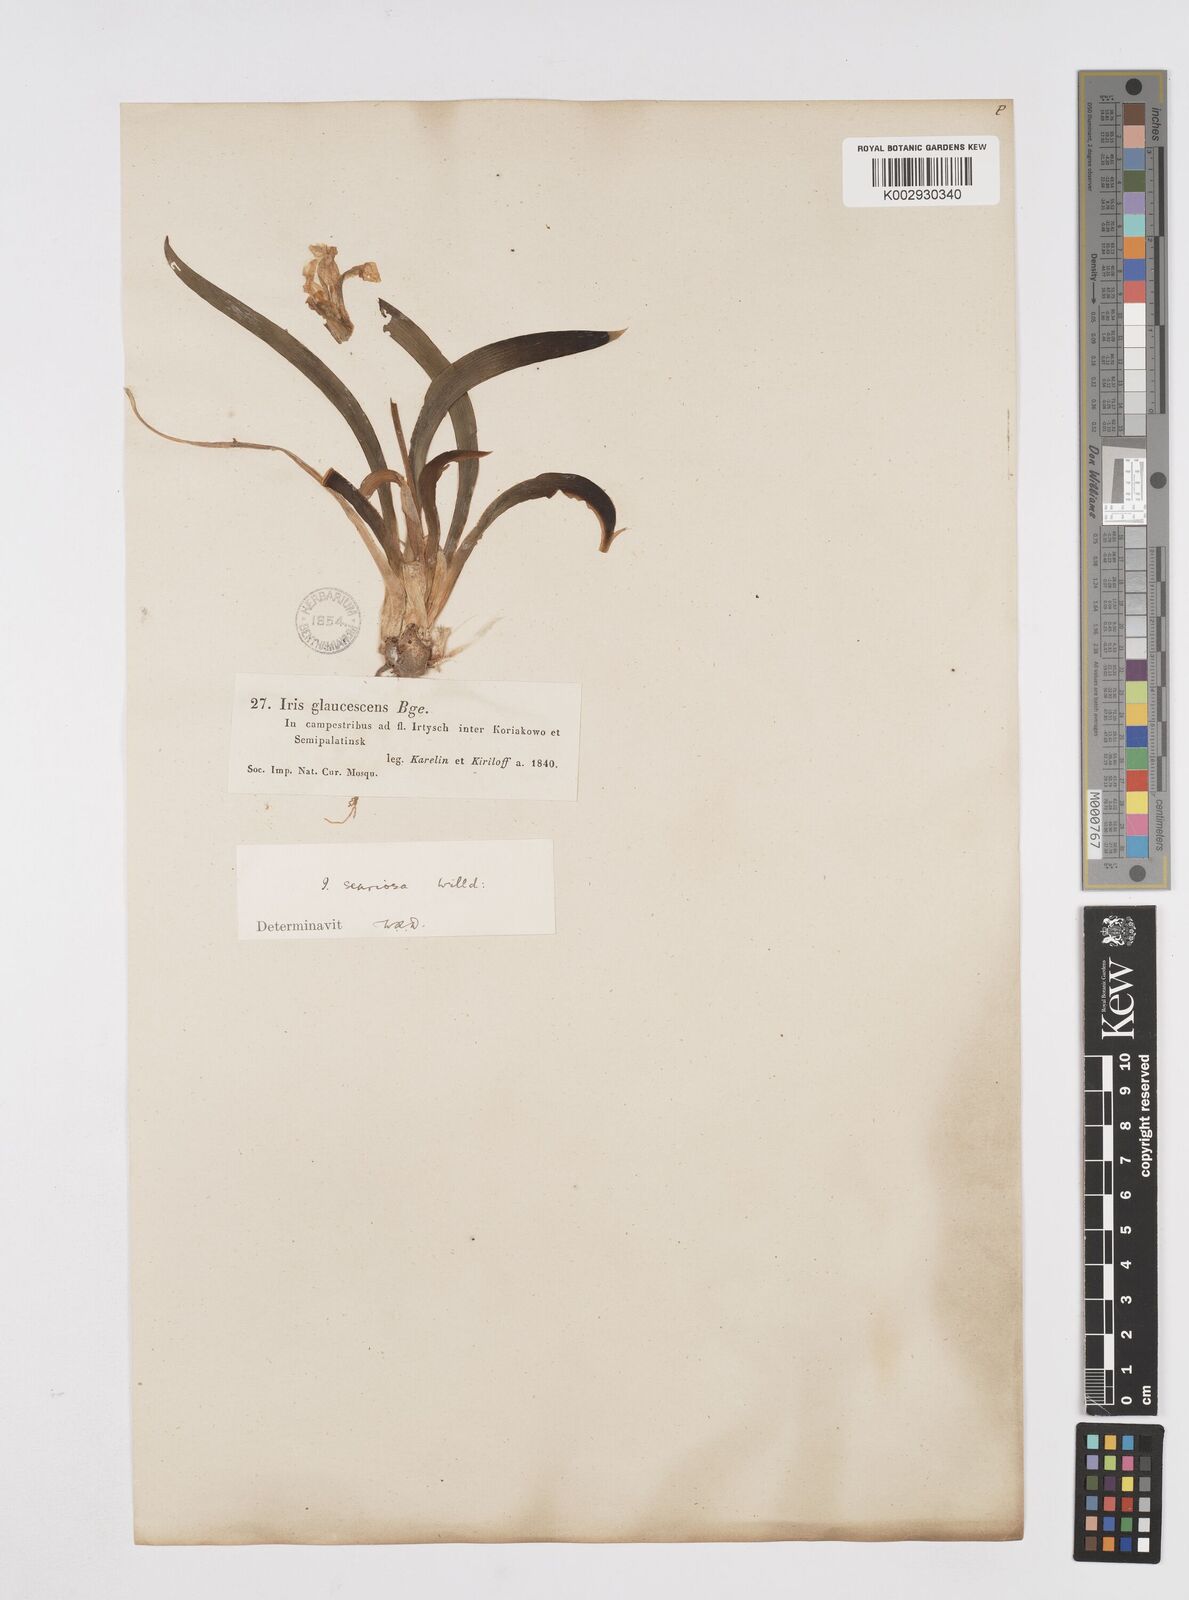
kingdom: Plantae
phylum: Tracheophyta
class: Liliopsida
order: Asparagales
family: Iridaceae
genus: Iris
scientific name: Iris scariosa
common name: Membrane-bract iris
